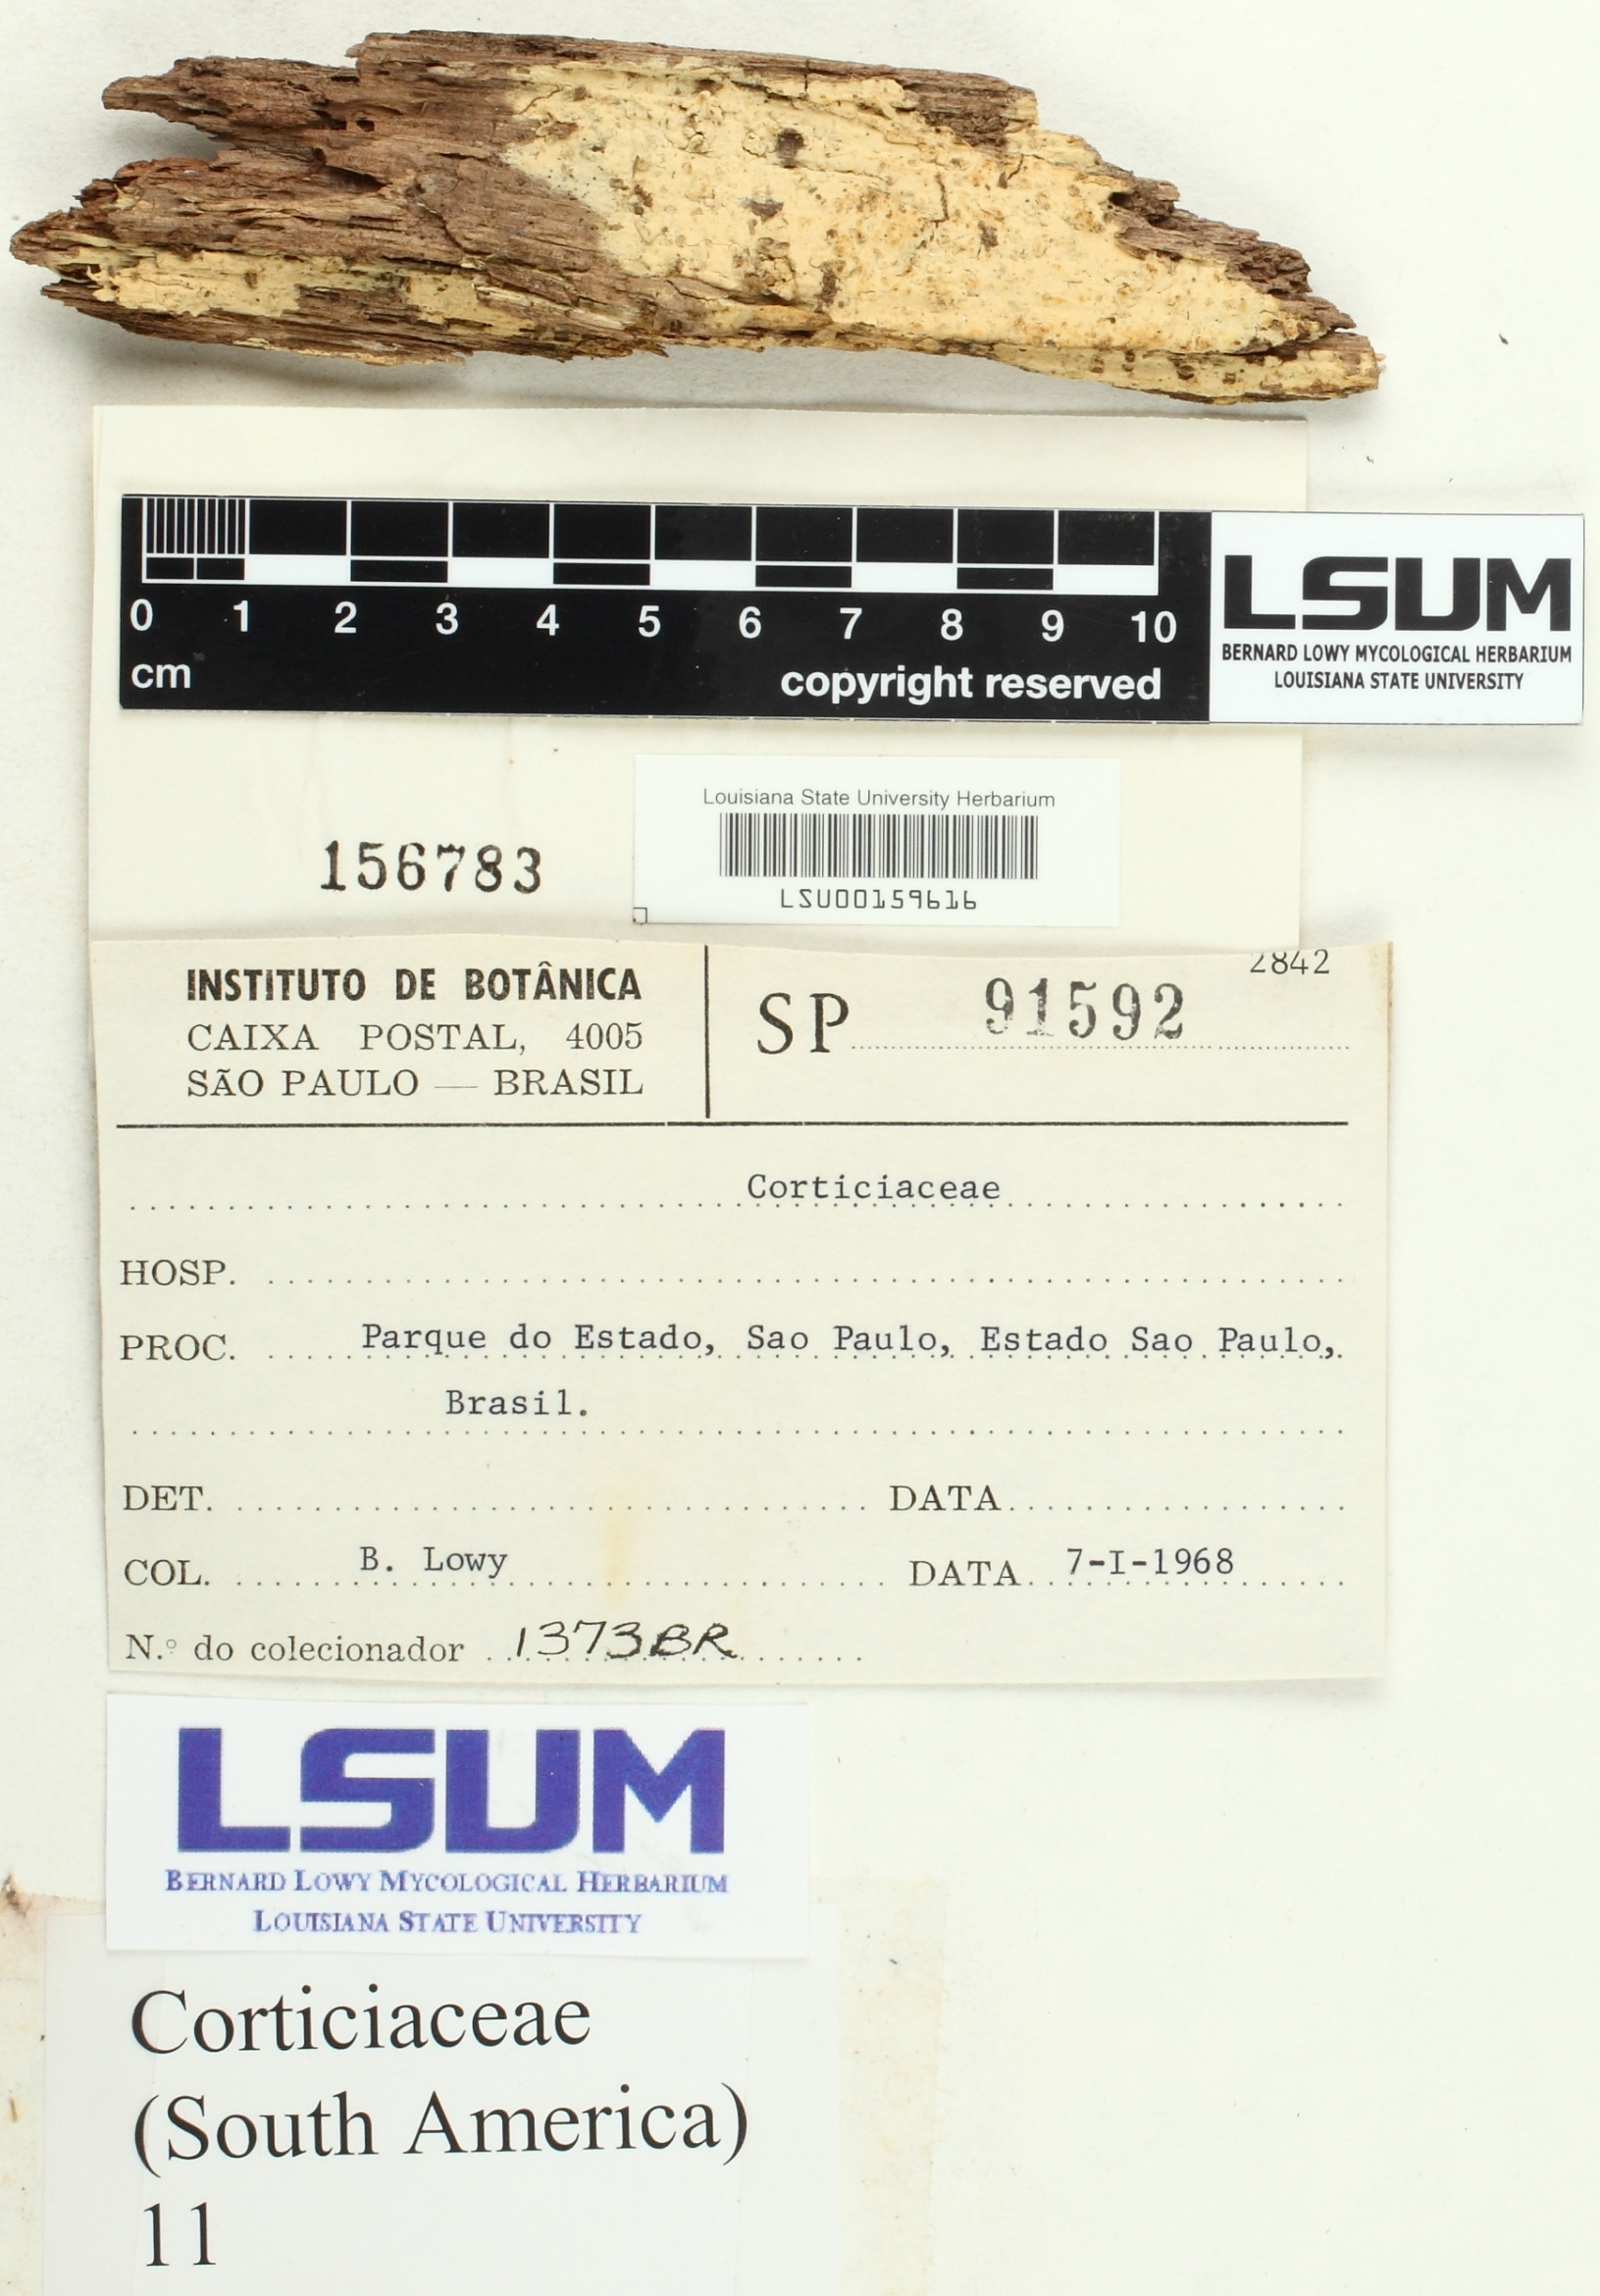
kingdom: Fungi
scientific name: Fungi
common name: Fungi
